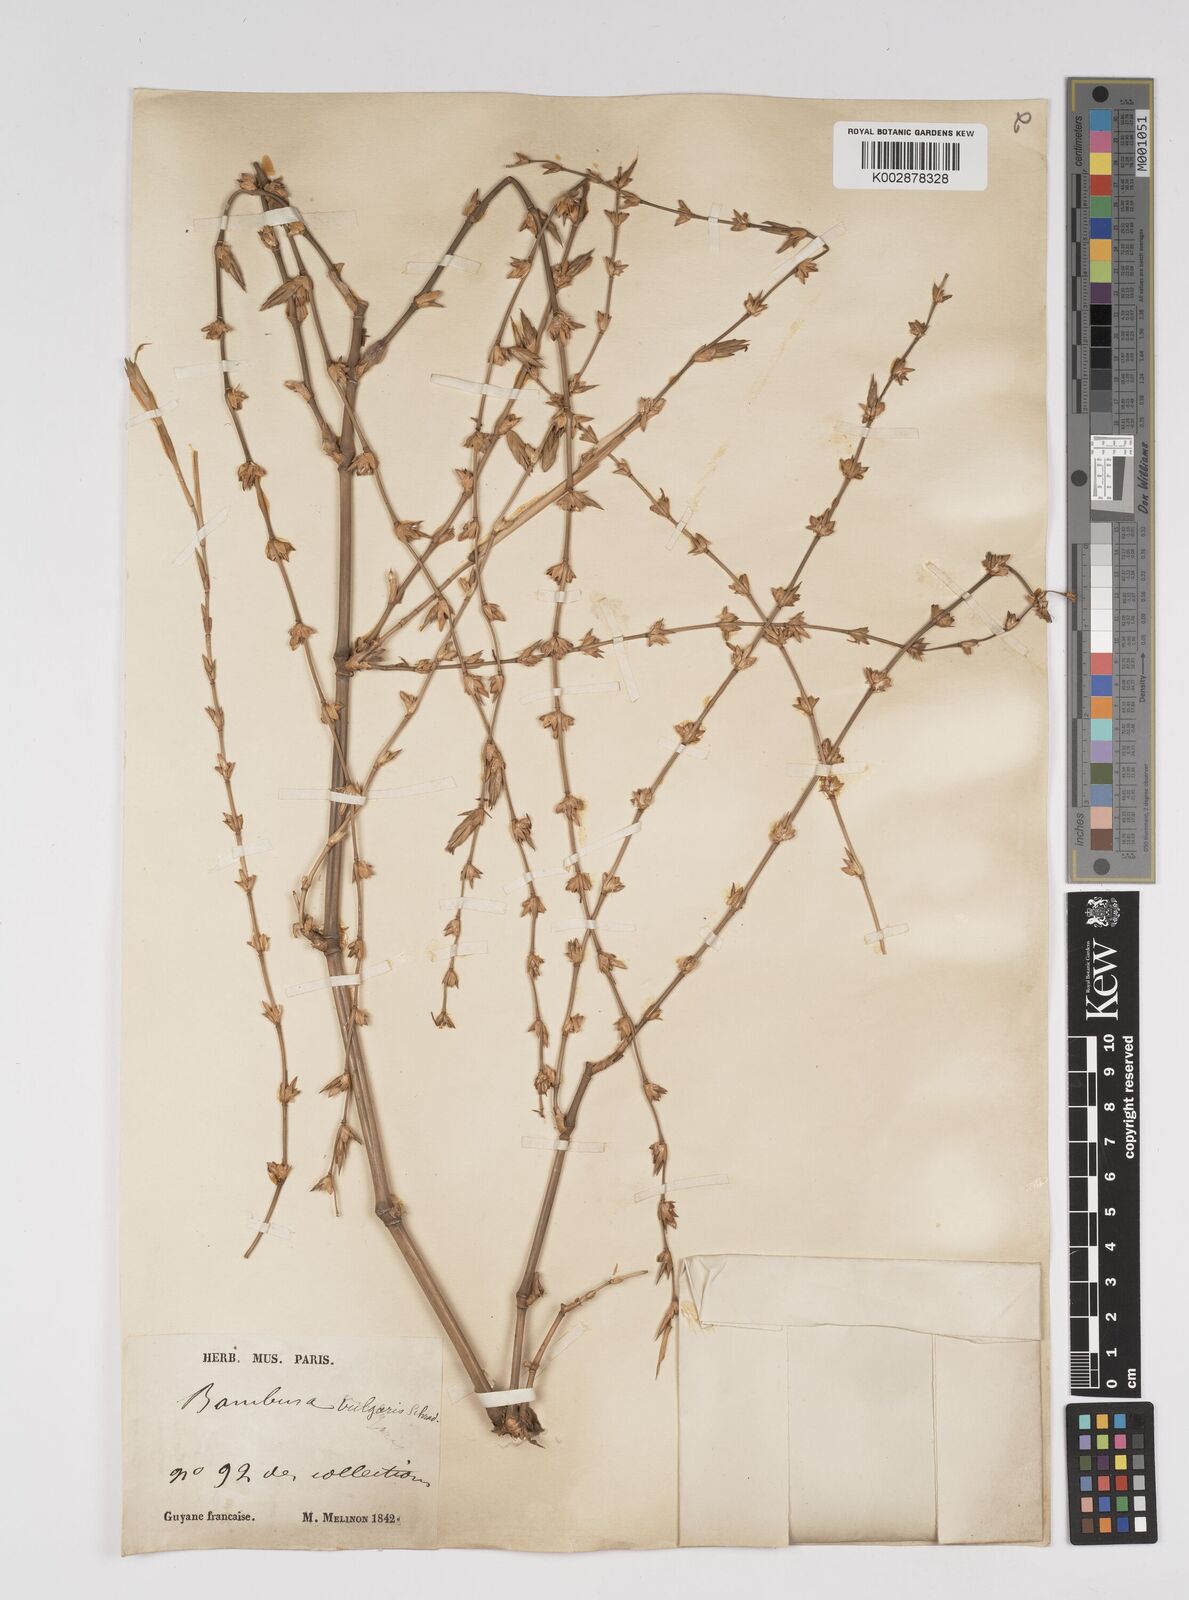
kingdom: Plantae
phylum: Tracheophyta
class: Liliopsida
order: Poales
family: Poaceae
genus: Bambusa
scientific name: Bambusa vulgaris
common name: Common bamboo
